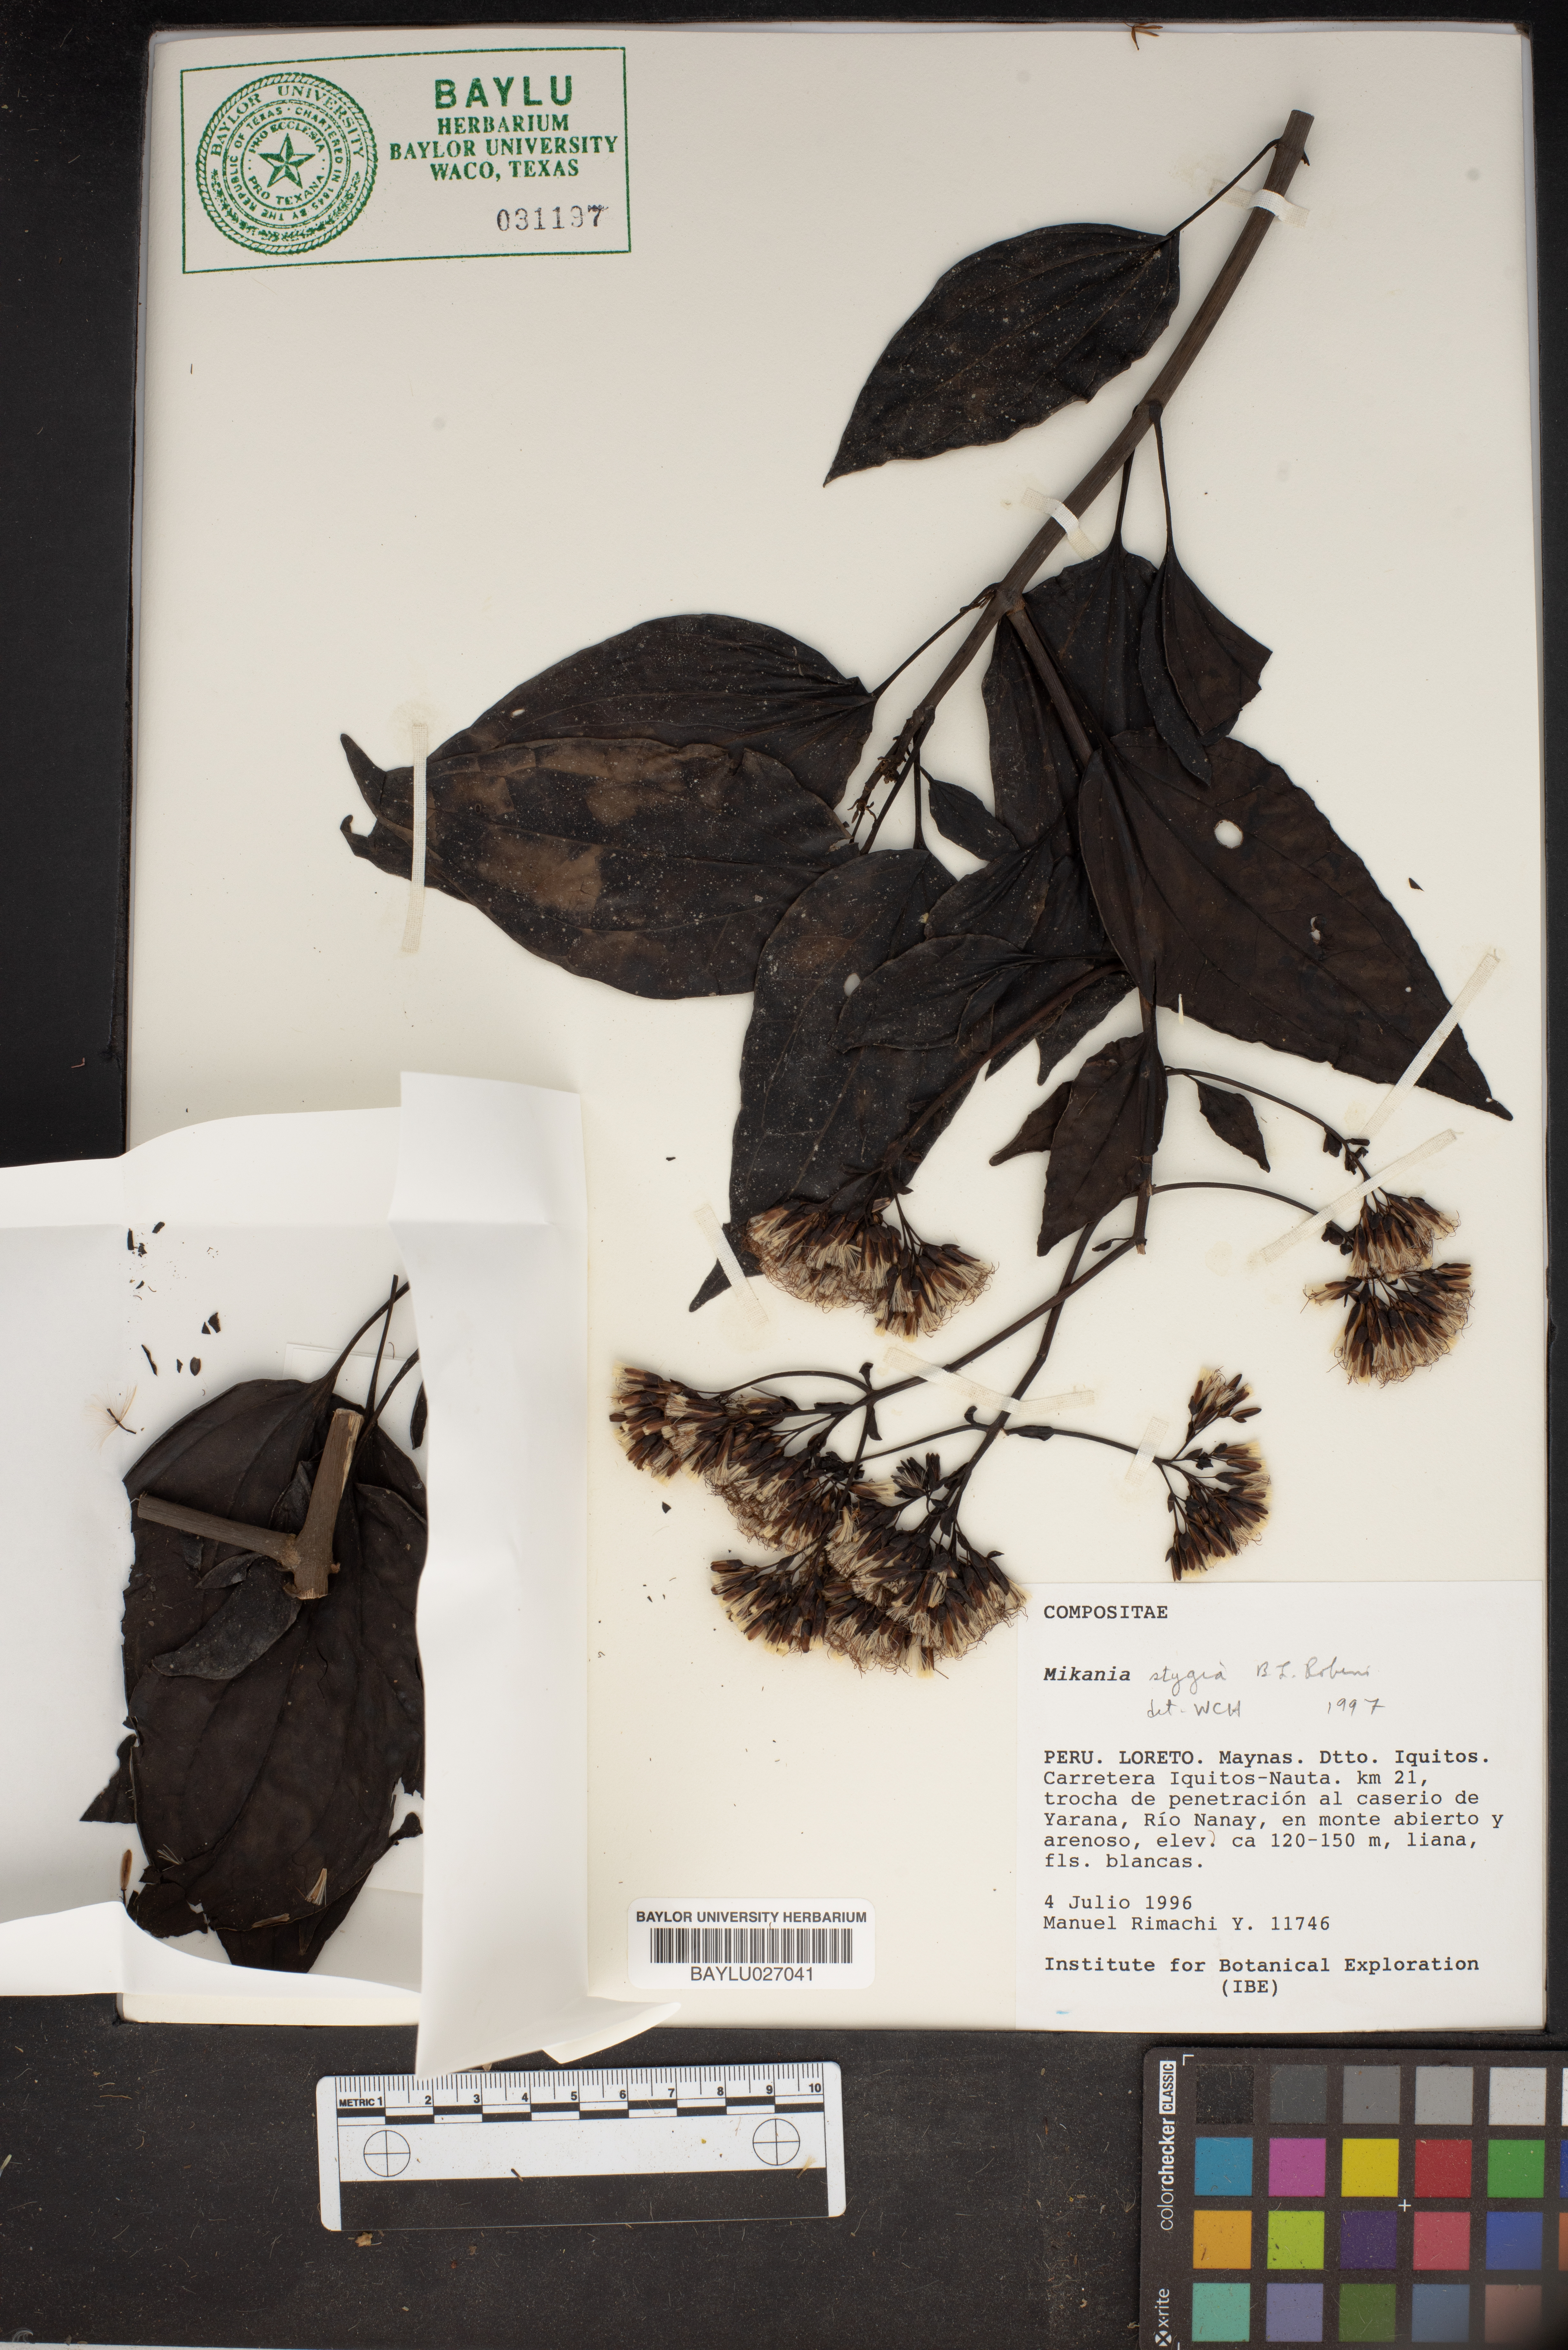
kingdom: Plantae
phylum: Tracheophyta
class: Magnoliopsida
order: Asterales
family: Asteraceae
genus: Mikania
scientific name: Mikania stygia
